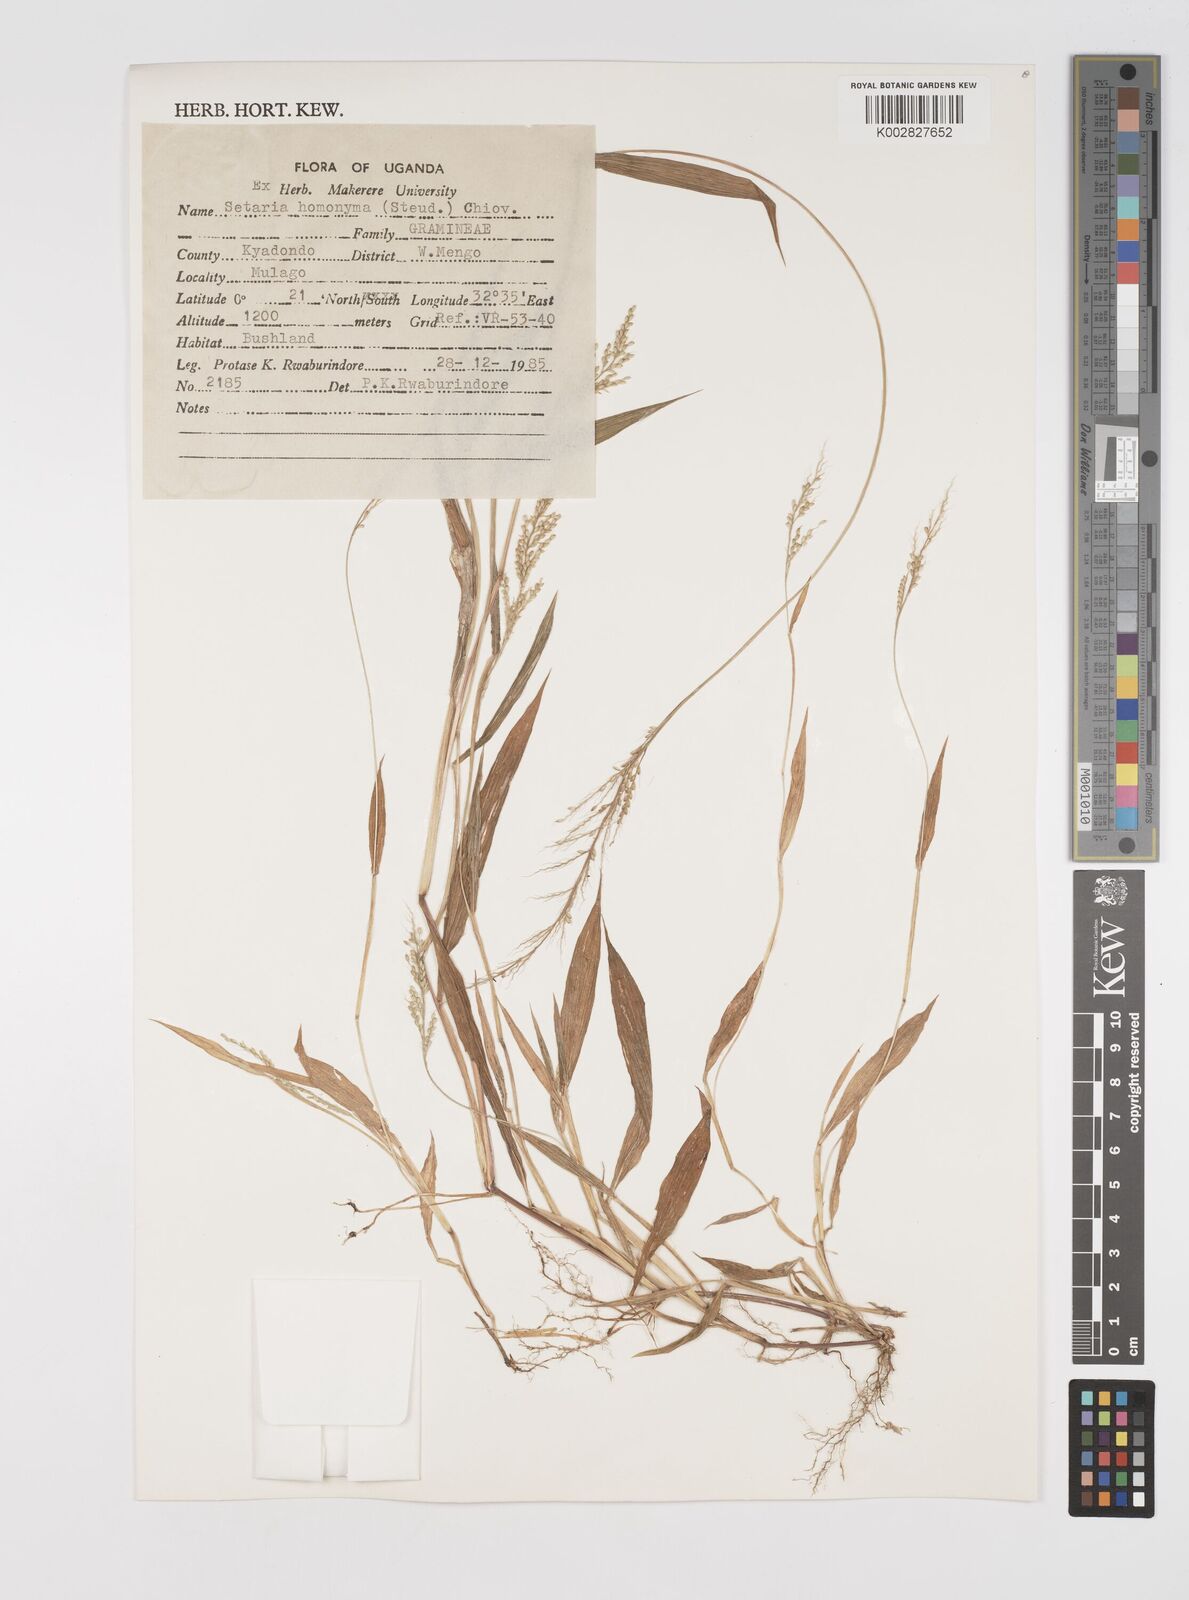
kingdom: Plantae
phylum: Tracheophyta
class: Liliopsida
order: Poales
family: Poaceae
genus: Setaria
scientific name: Setaria homonyma
